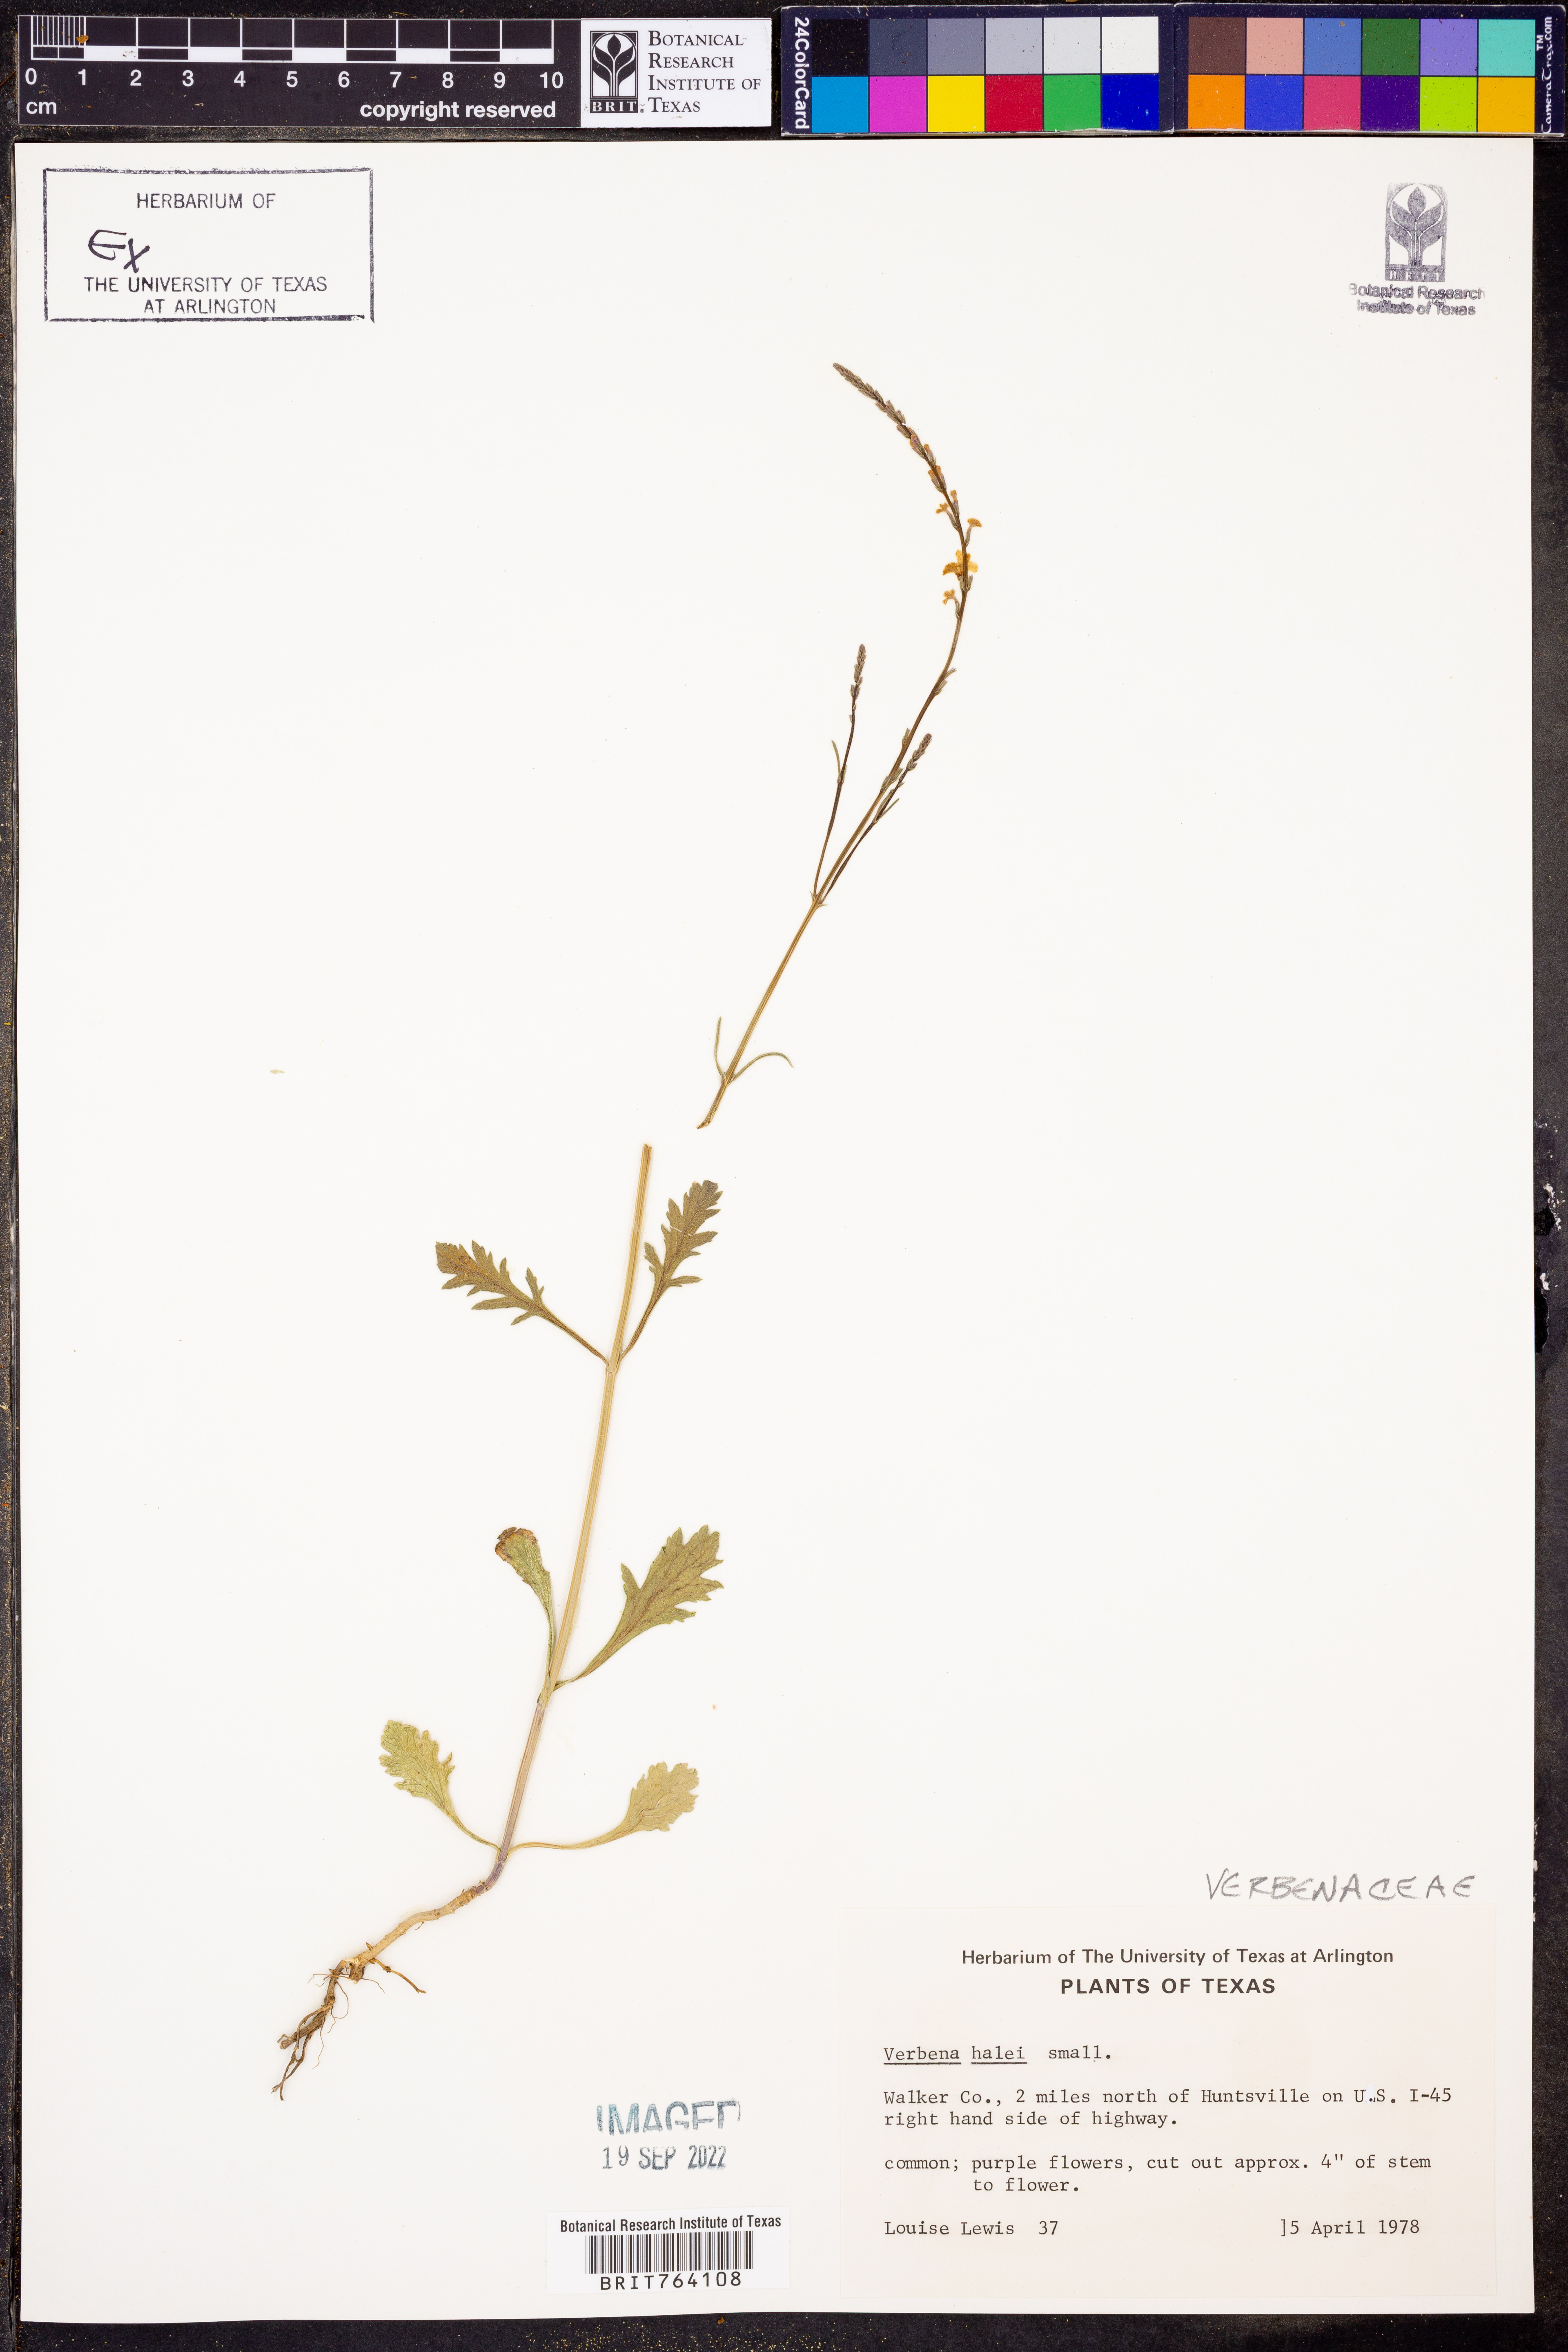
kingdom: Plantae
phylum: Tracheophyta
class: Magnoliopsida
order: Lamiales
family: Verbenaceae
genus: Verbena
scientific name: Verbena halei
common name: Texas vervain
